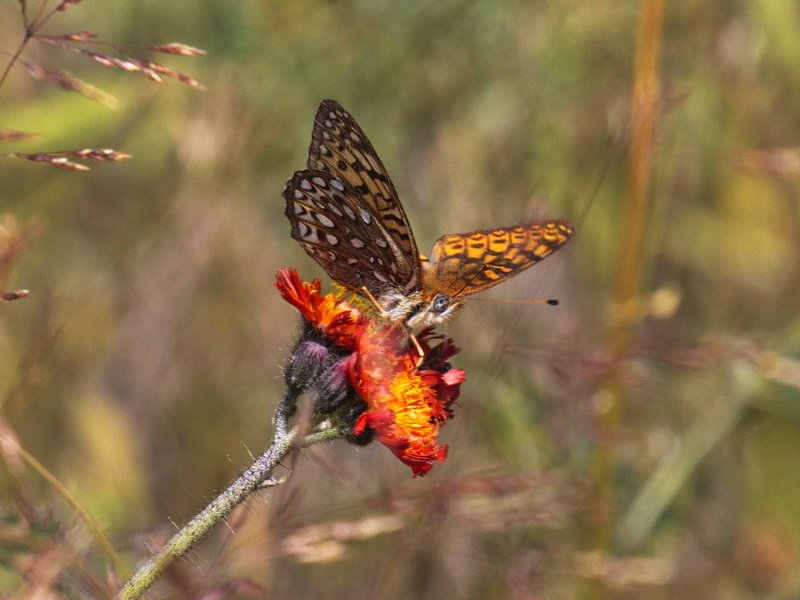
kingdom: Animalia
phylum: Arthropoda
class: Insecta
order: Lepidoptera
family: Nymphalidae
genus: Speyeria
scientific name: Speyeria atlantis
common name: Atlantis Fritillary
